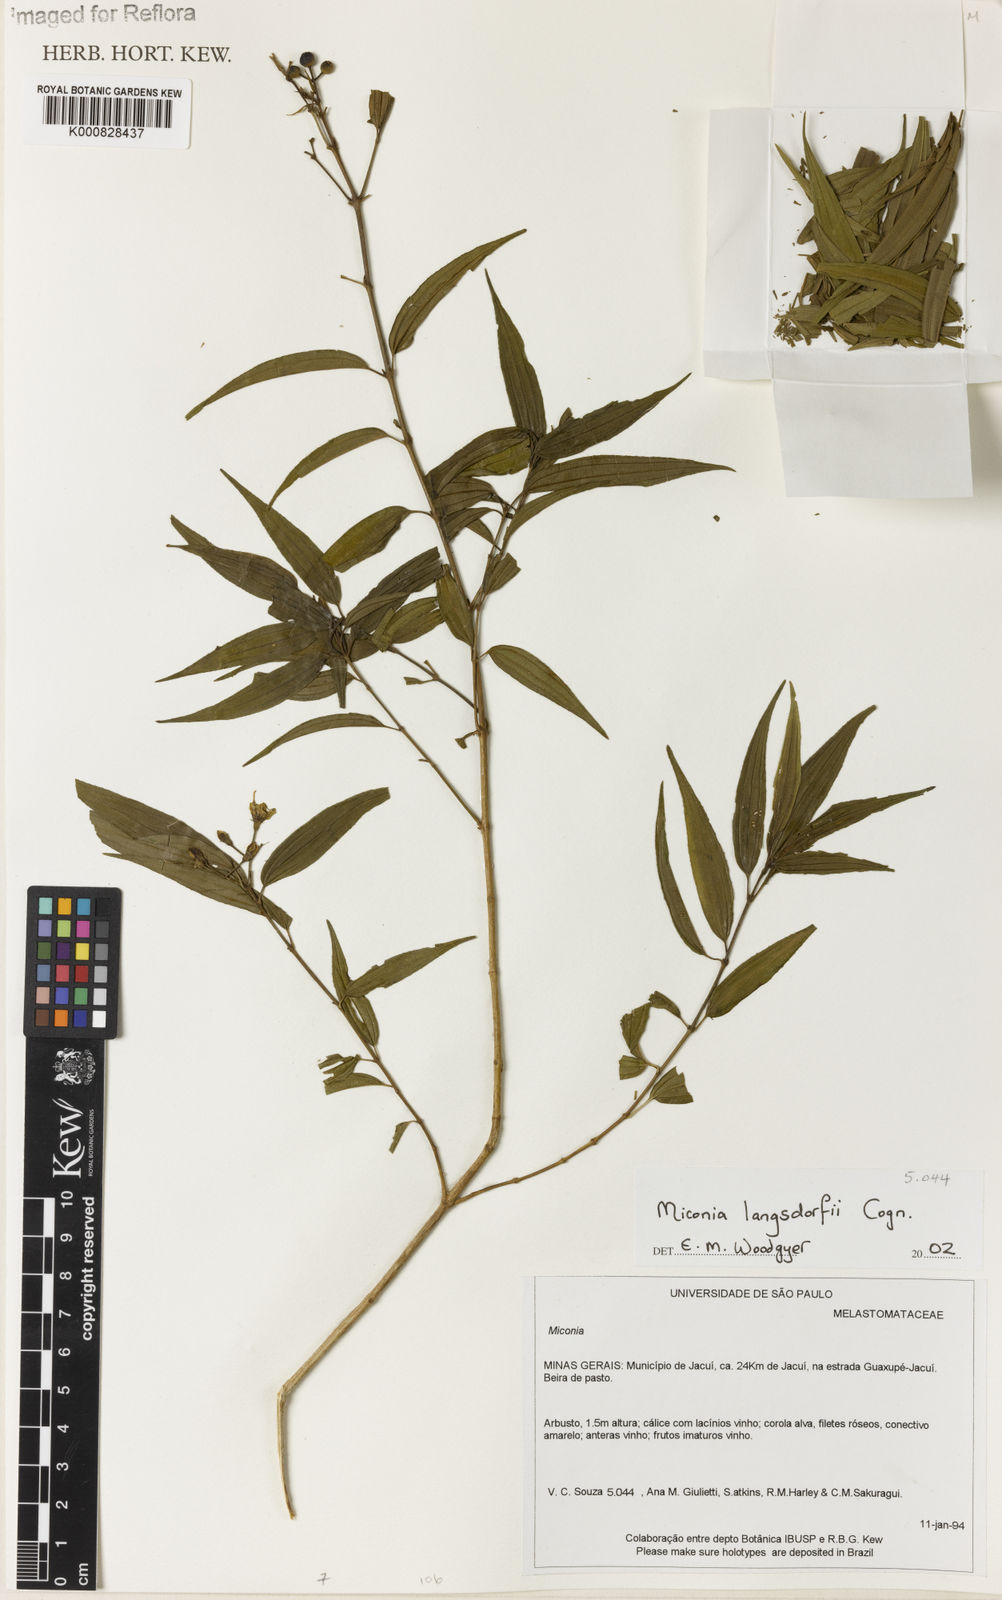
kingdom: Plantae
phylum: Tracheophyta
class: Magnoliopsida
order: Myrtales
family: Melastomataceae
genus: Miconia
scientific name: Miconia langsdorffii
